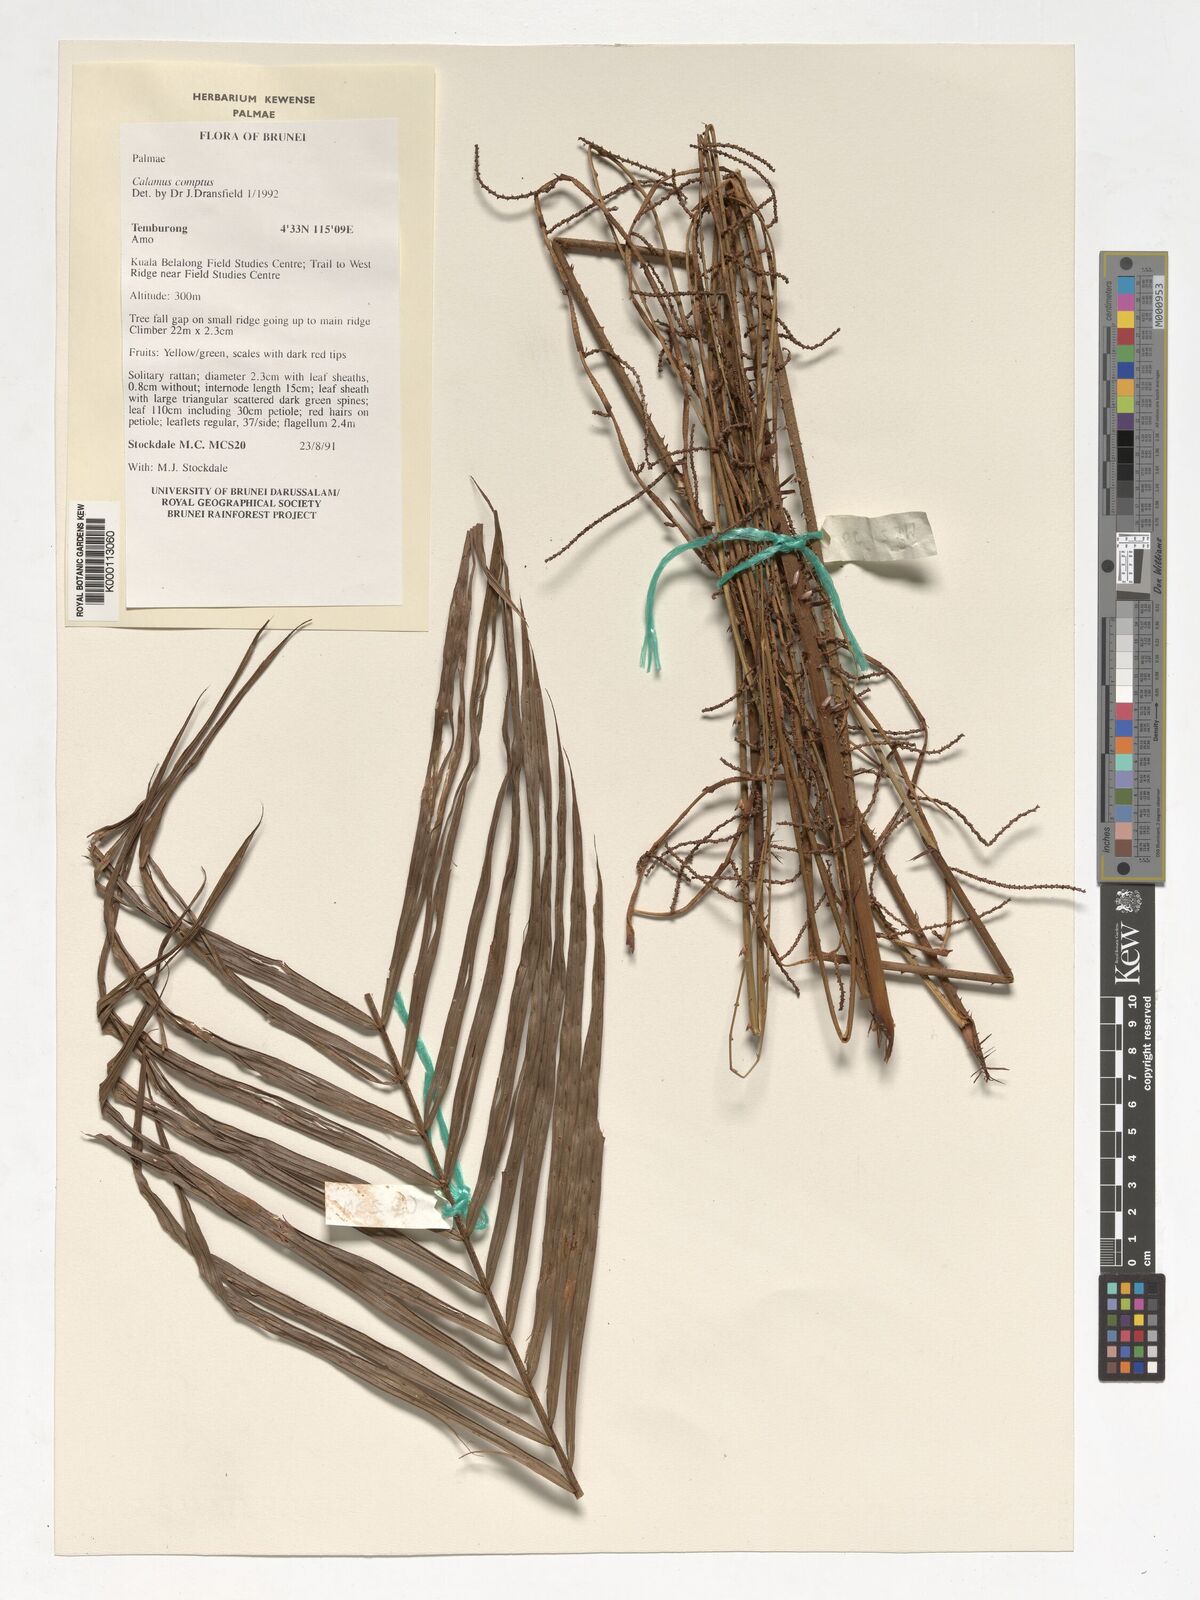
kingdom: Plantae
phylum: Tracheophyta
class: Liliopsida
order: Arecales
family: Arecaceae
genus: Calamus
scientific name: Calamus comptus
